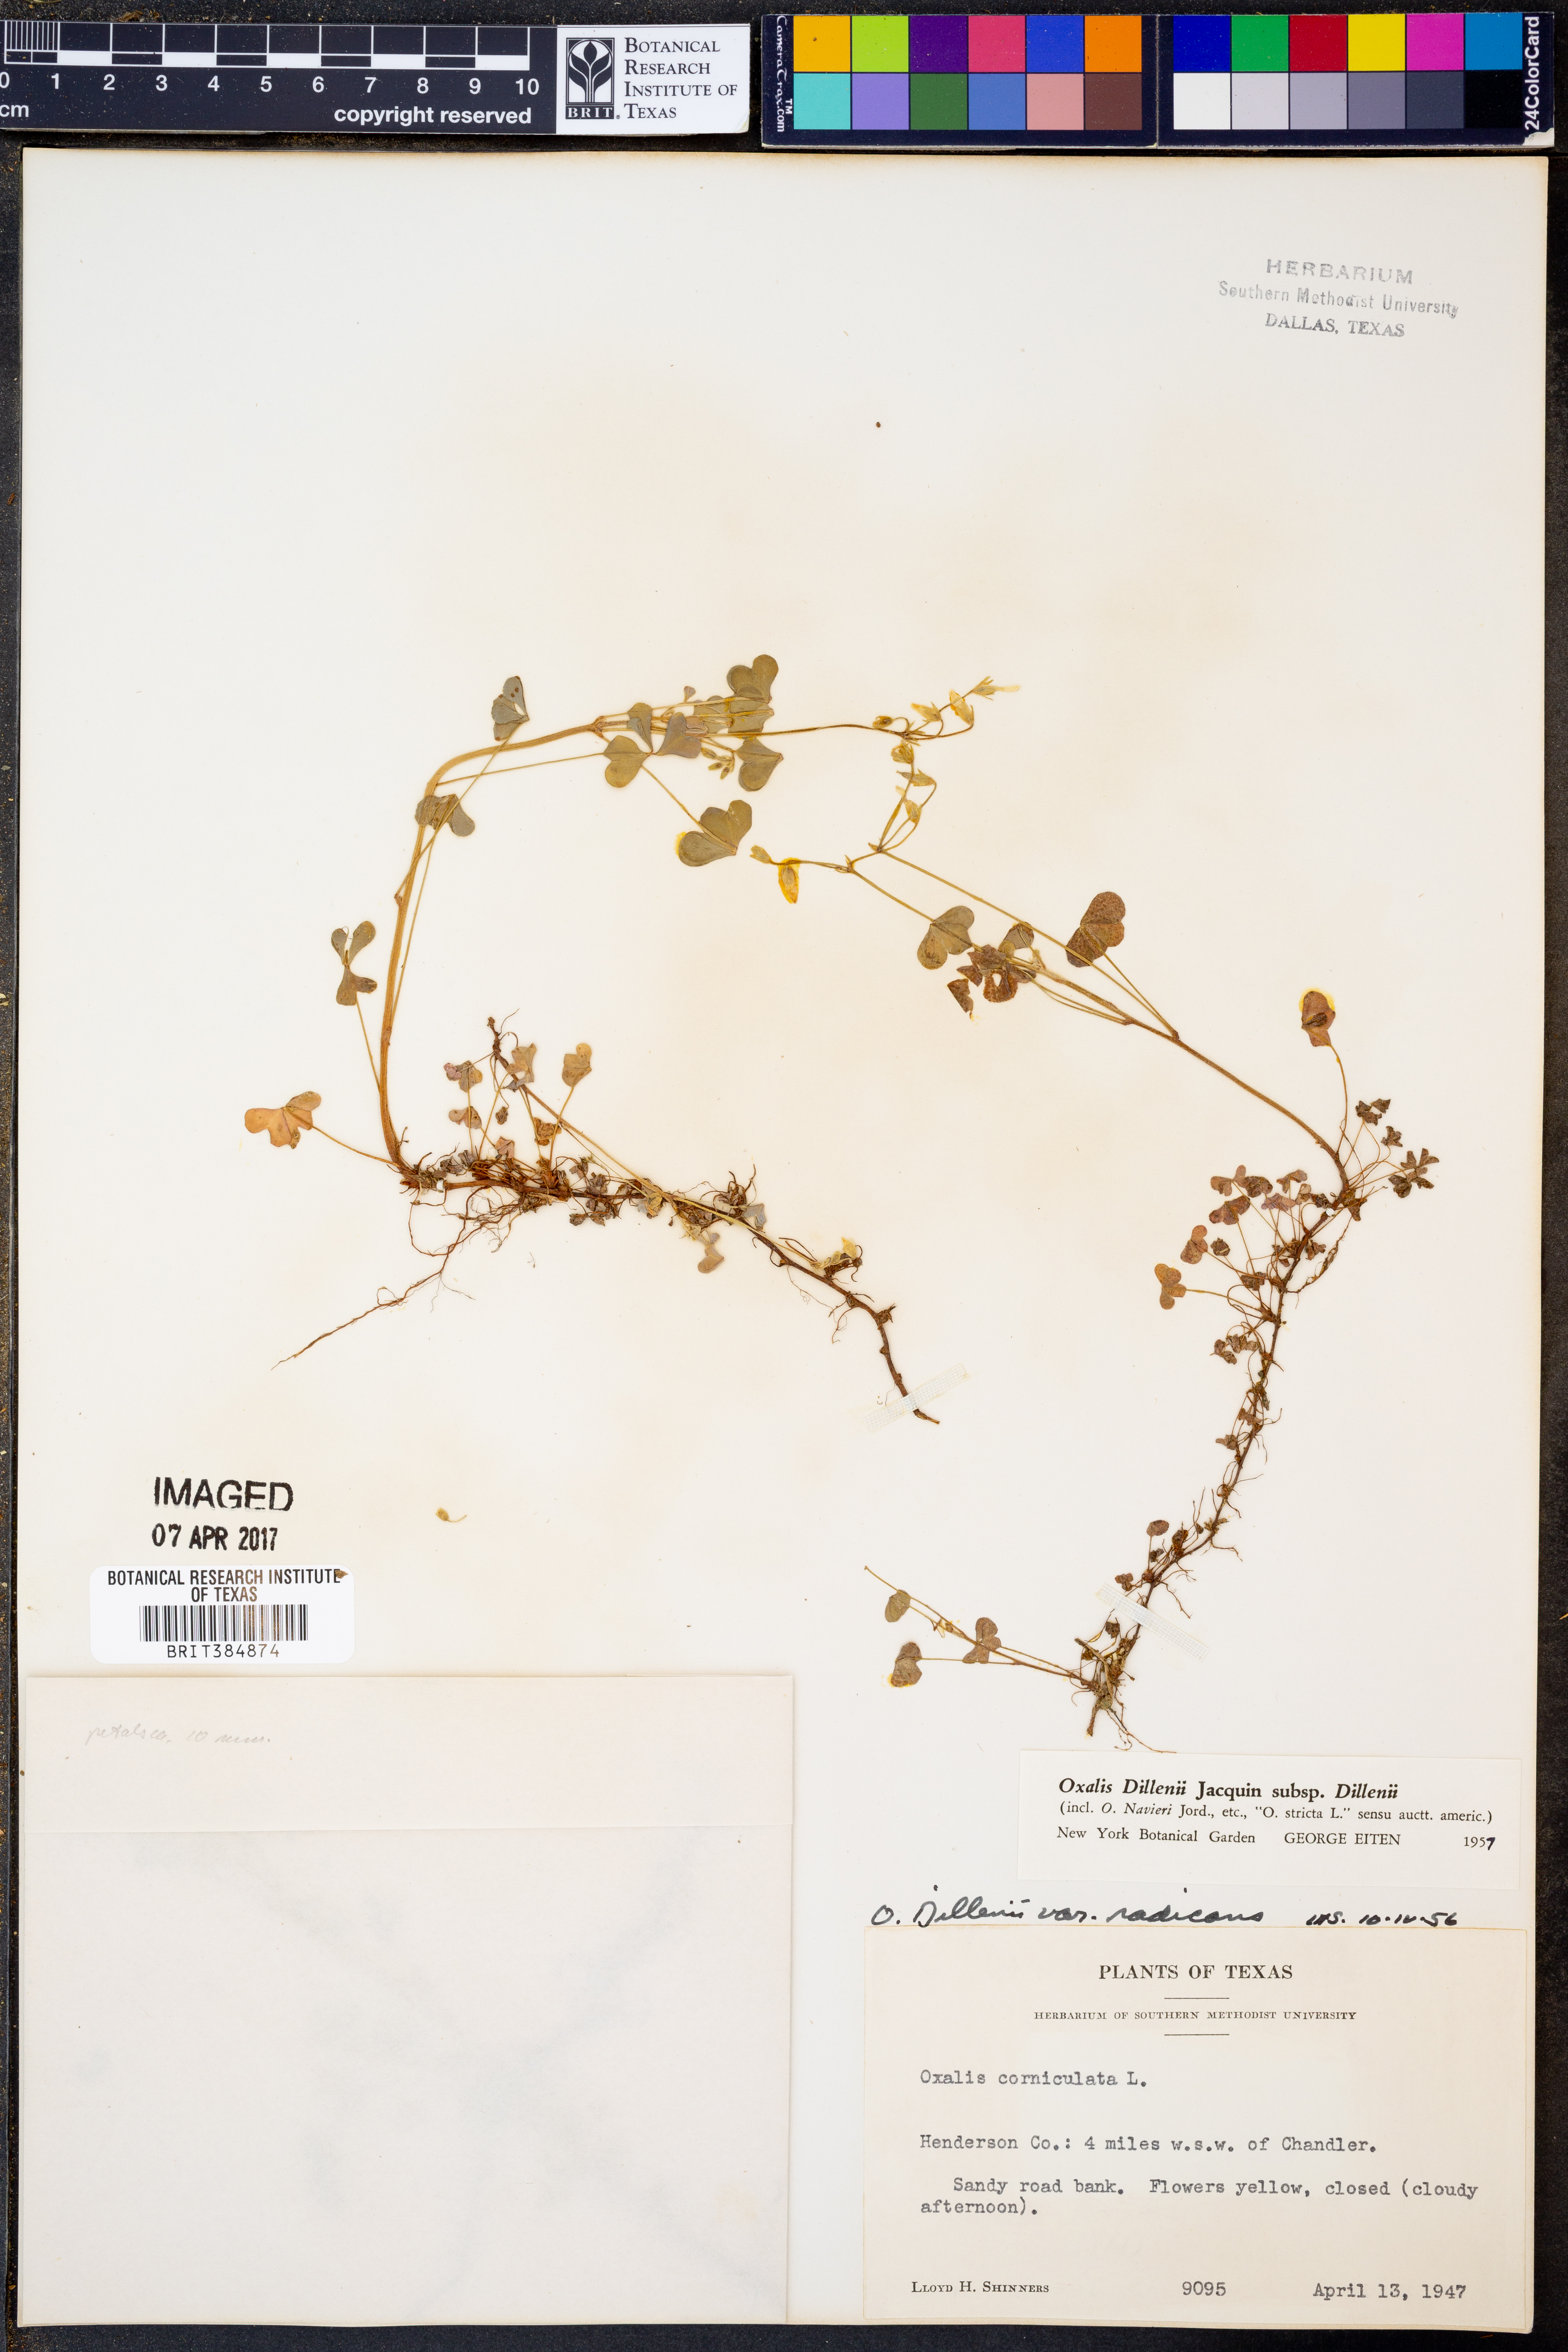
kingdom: Plantae
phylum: Tracheophyta
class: Magnoliopsida
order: Oxalidales
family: Oxalidaceae
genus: Oxalis
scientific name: Oxalis dillenii
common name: Sussex yellow-sorrel
